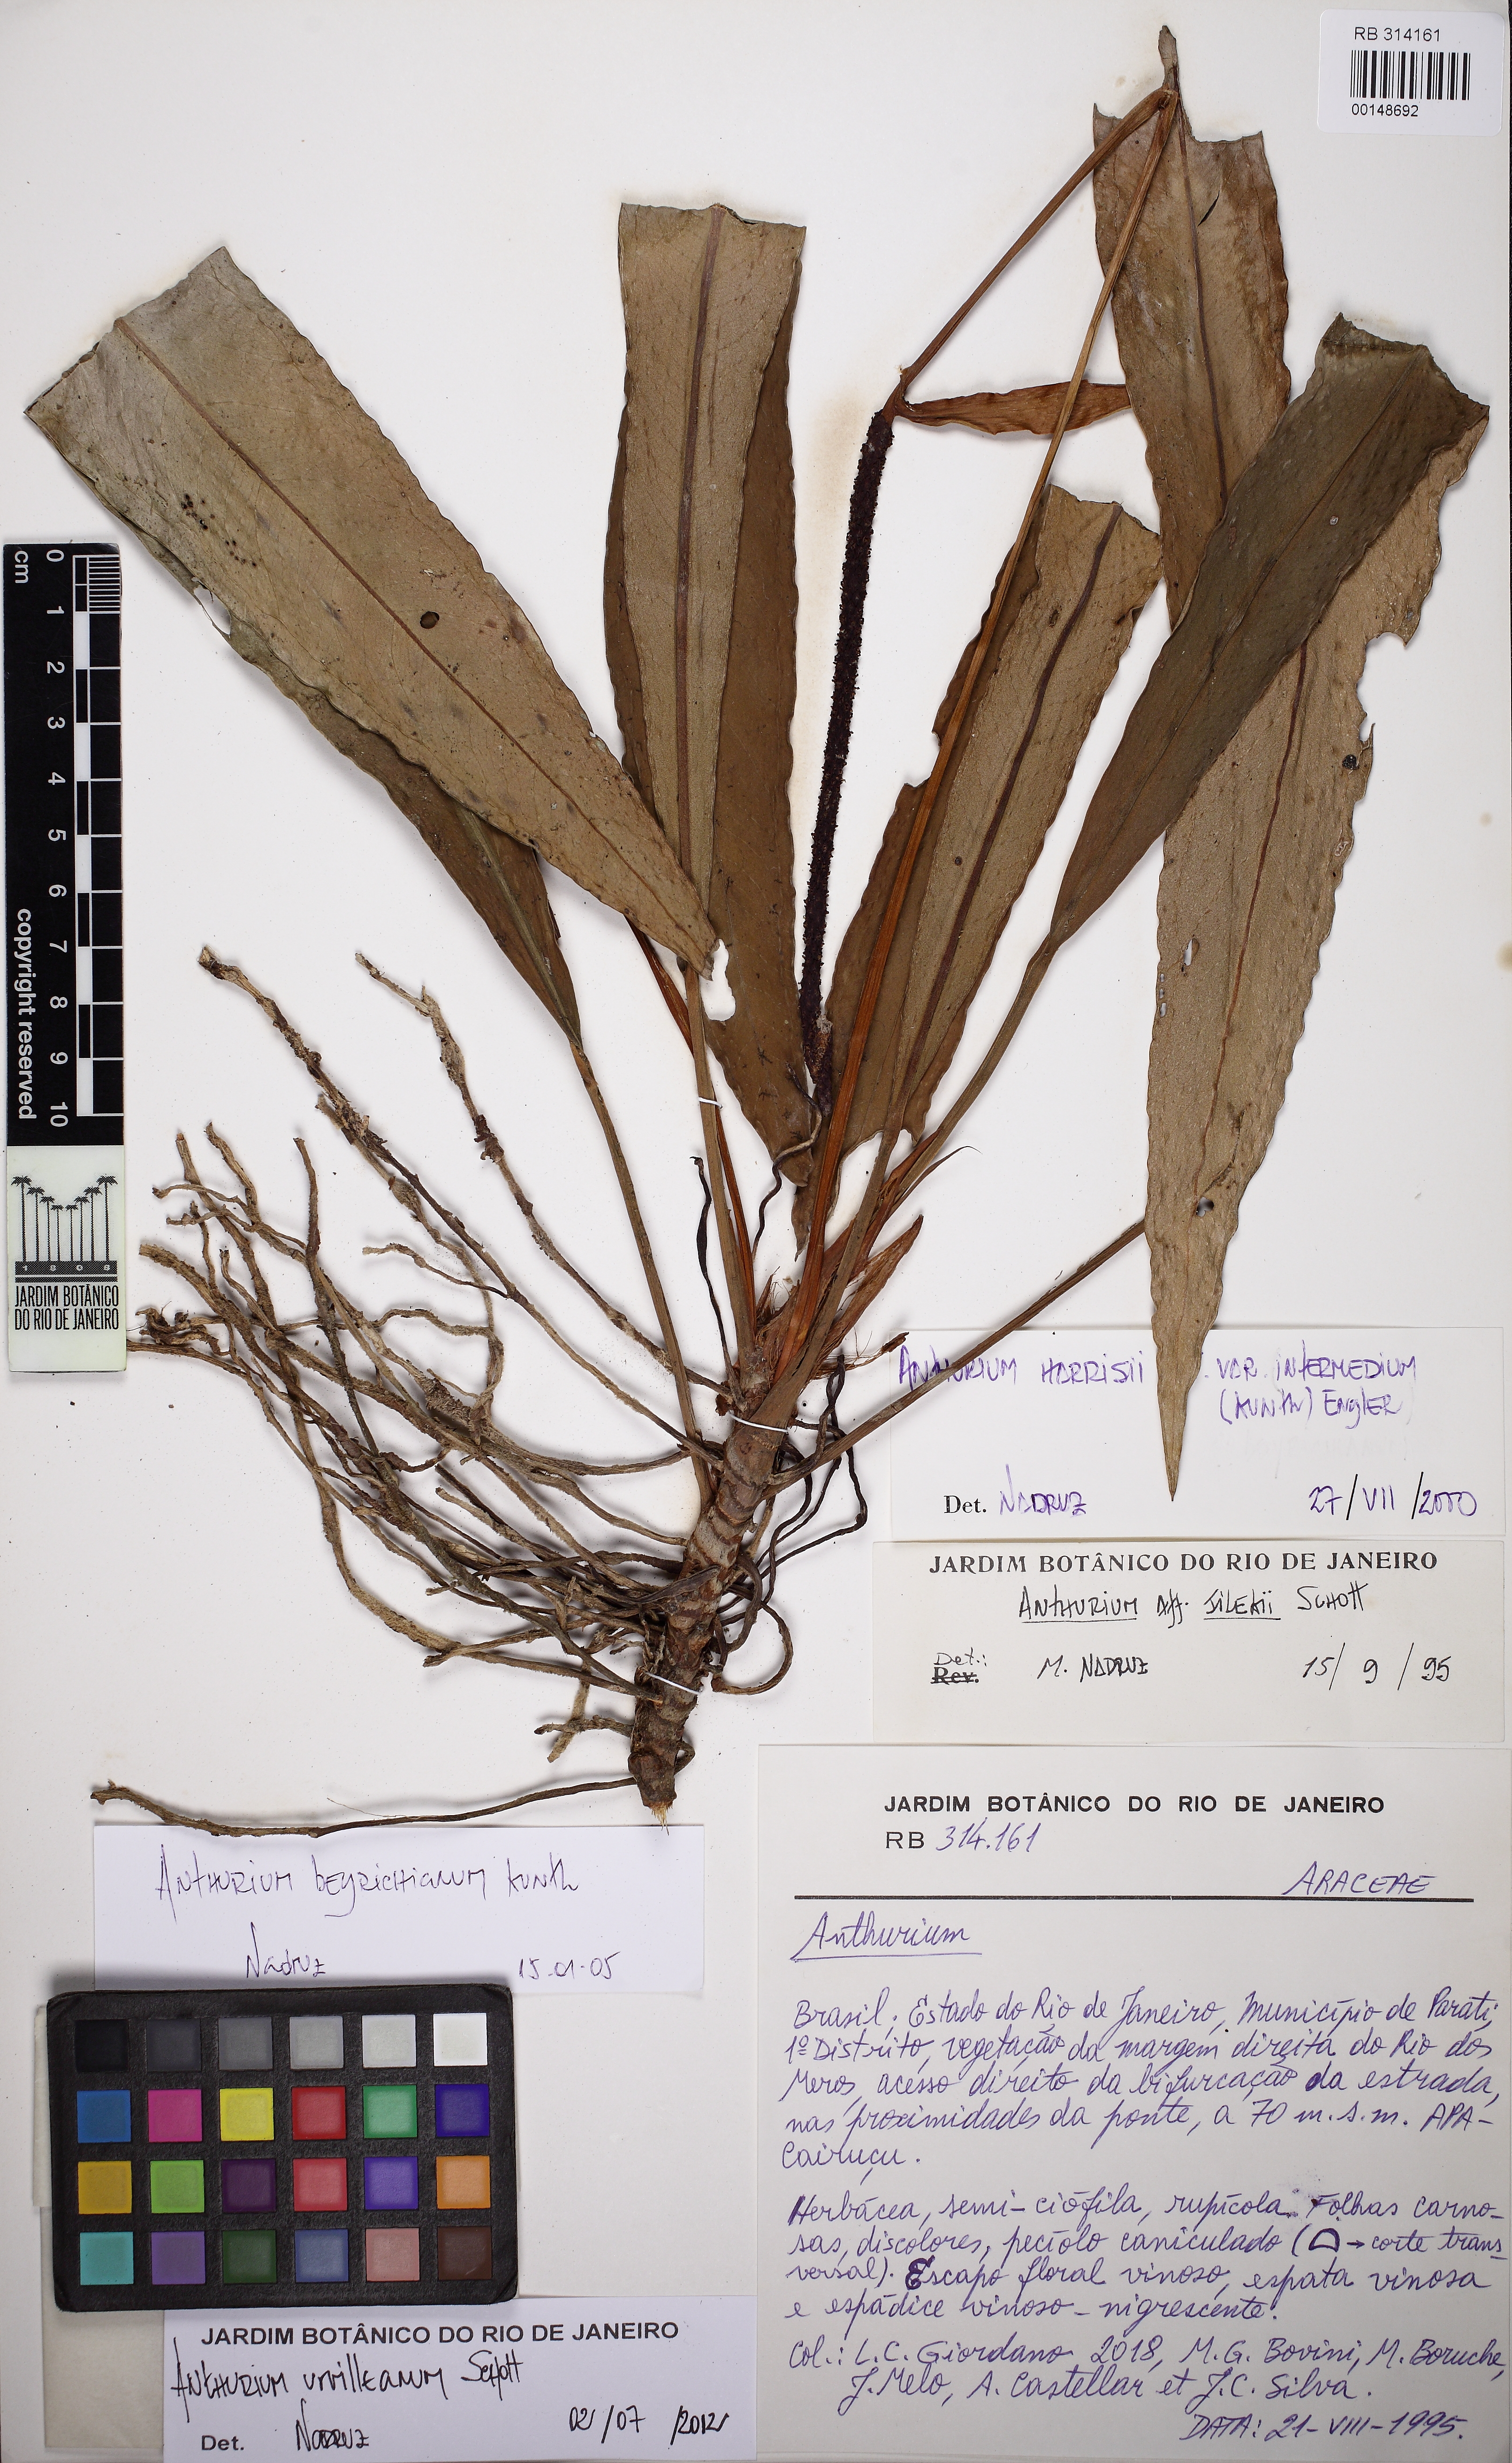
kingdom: Plantae
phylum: Tracheophyta
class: Liliopsida
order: Alismatales
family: Araceae
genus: Anthurium
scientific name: Anthurium urvilleanum
